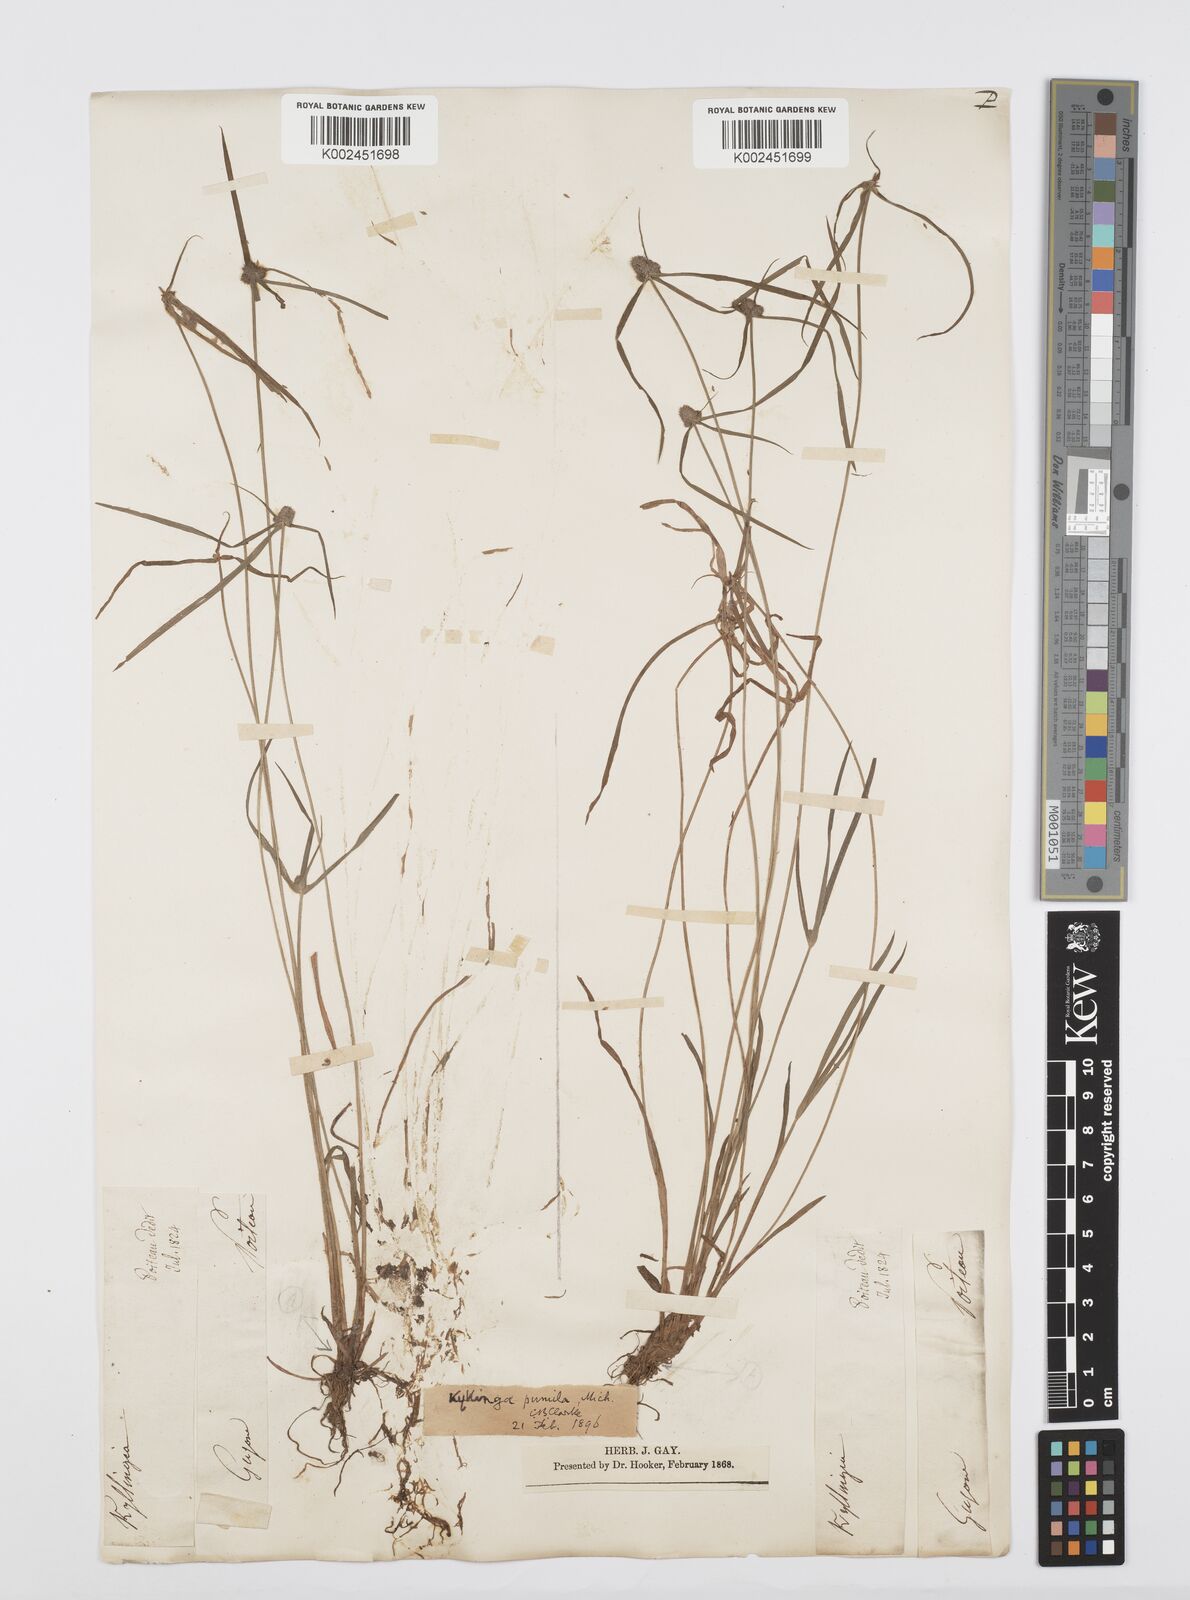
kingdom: Plantae
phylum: Tracheophyta
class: Liliopsida
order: Poales
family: Cyperaceae
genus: Cyperus
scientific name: Cyperus
